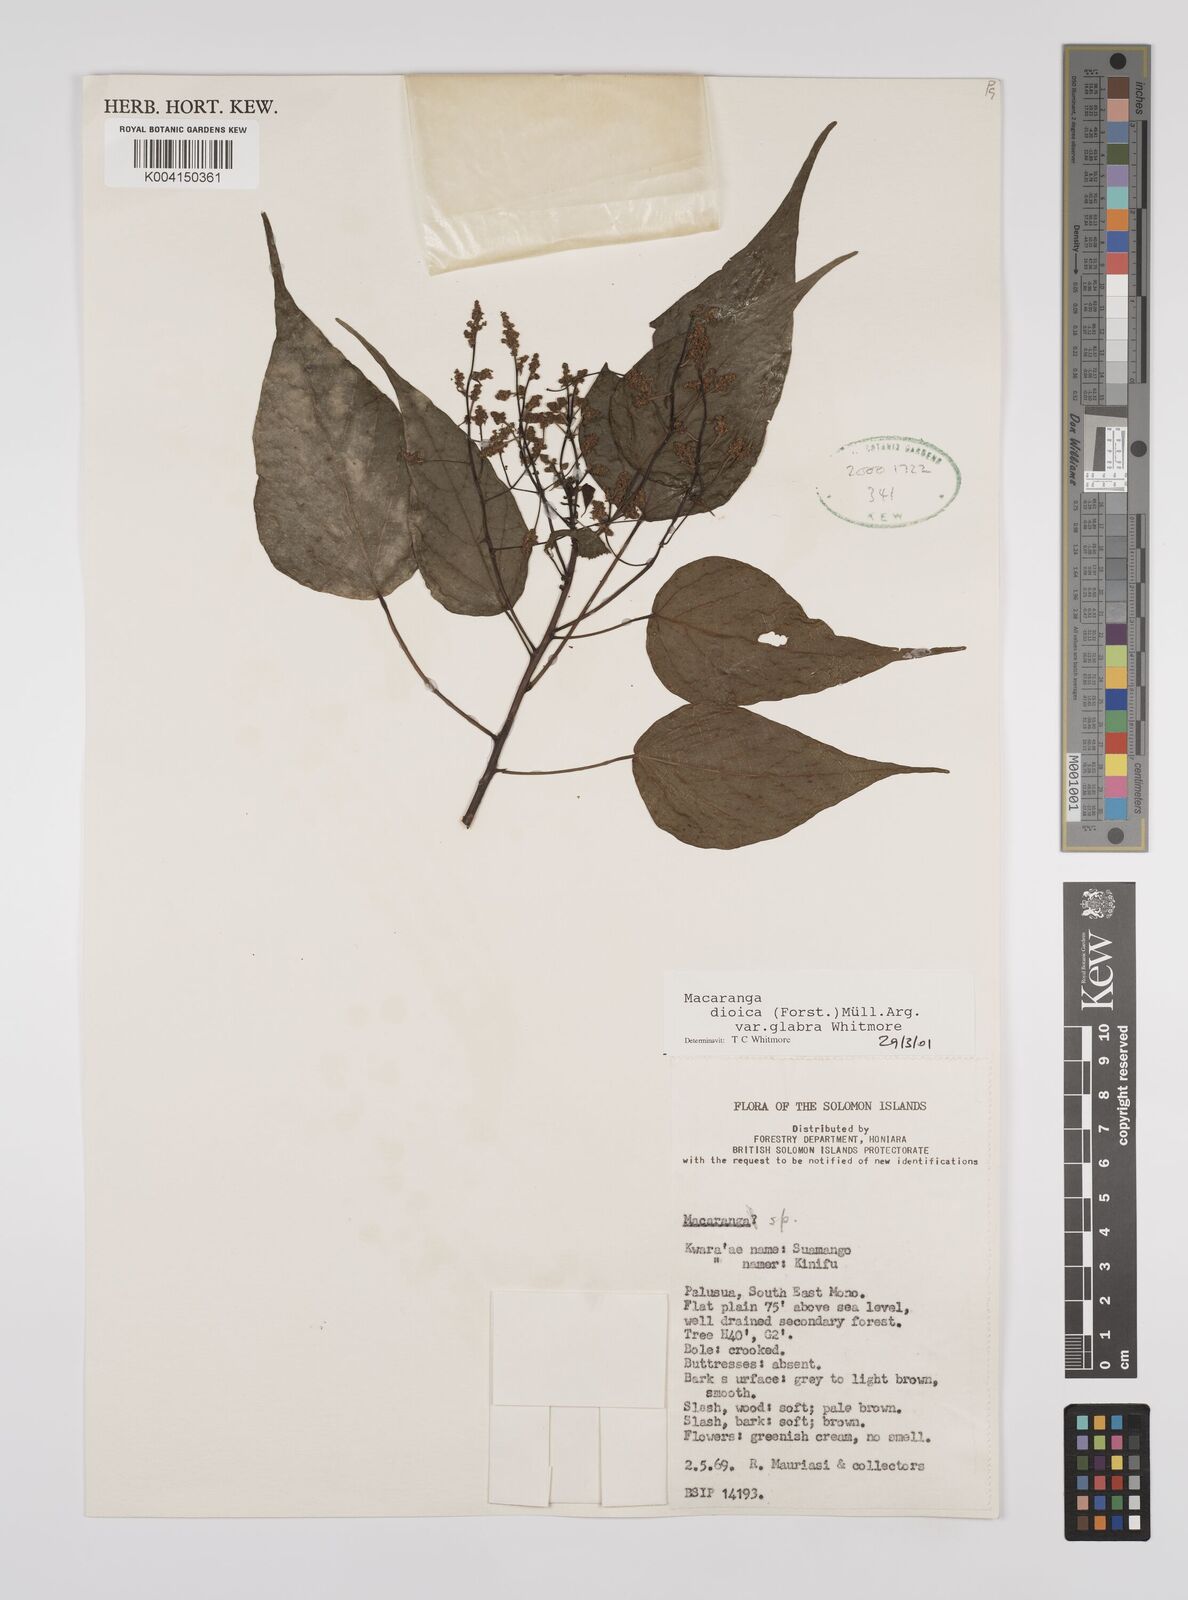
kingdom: Plantae
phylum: Tracheophyta
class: Magnoliopsida
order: Malpighiales
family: Euphorbiaceae
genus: Macaranga
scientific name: Macaranga dioica
